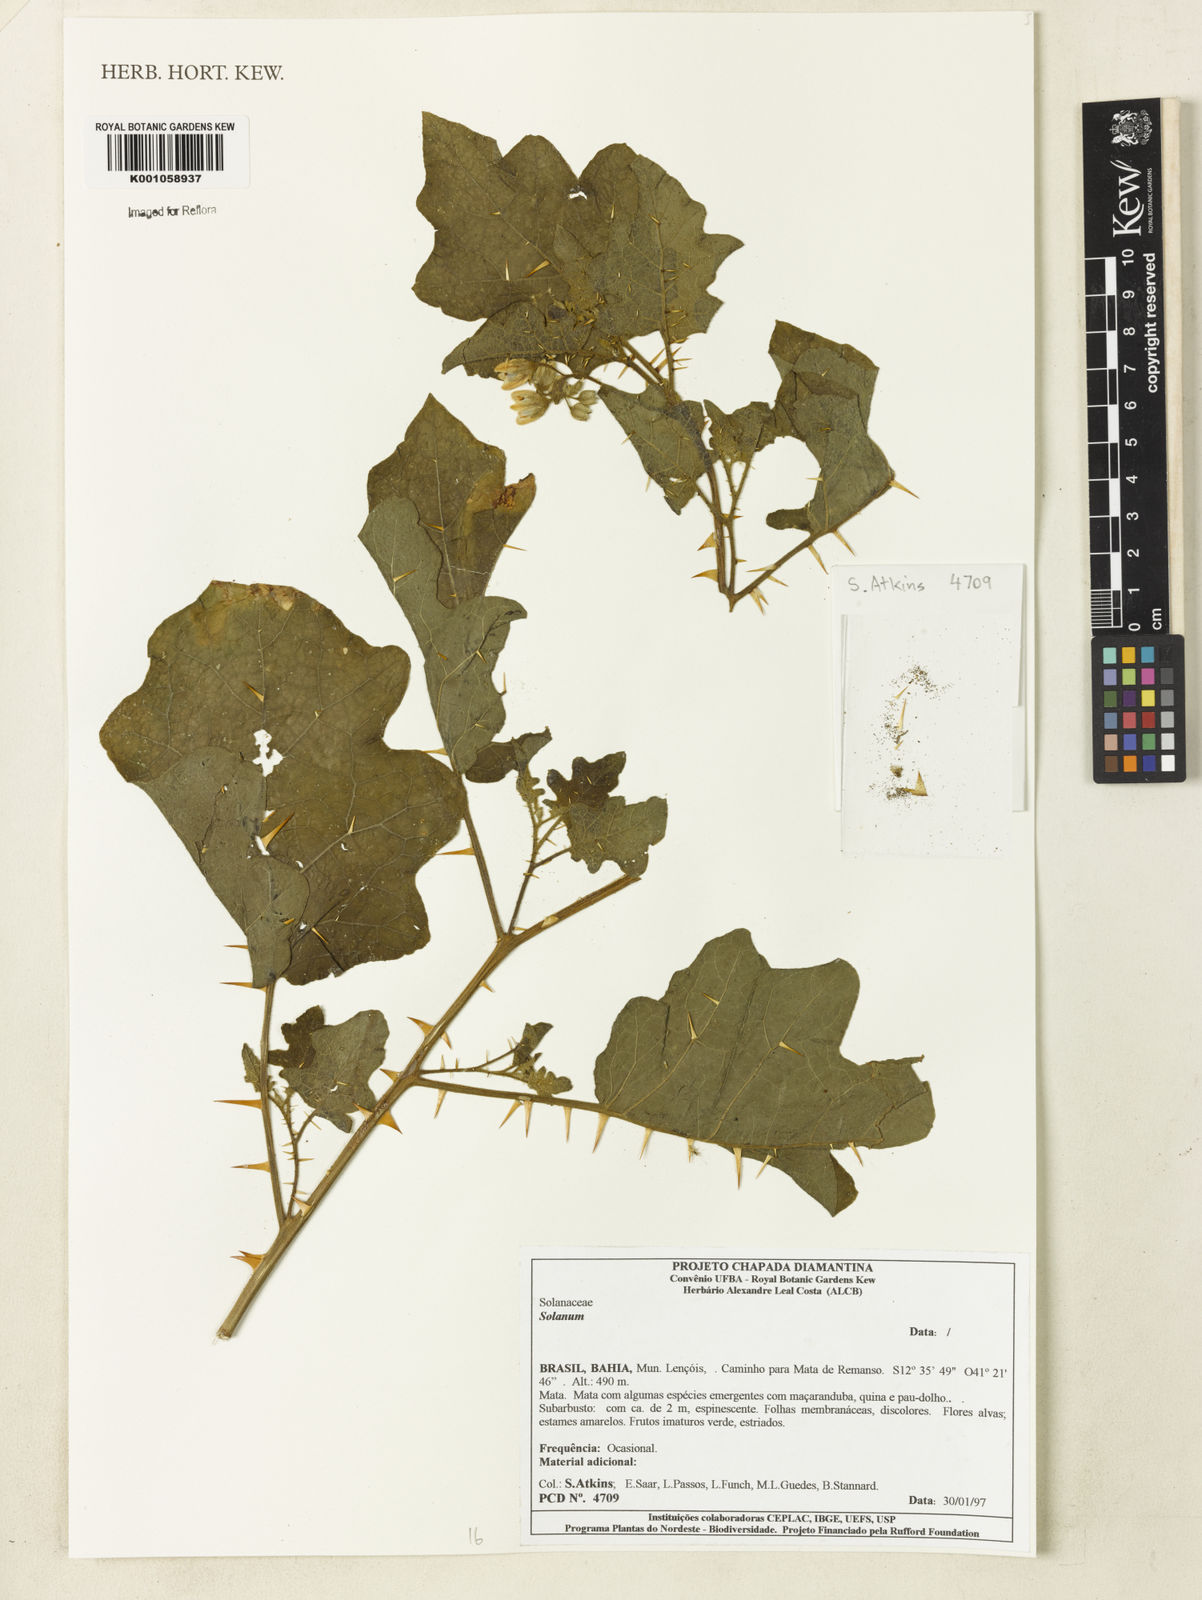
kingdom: Plantae
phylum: Tracheophyta
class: Magnoliopsida
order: Solanales
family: Solanaceae
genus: Solanum
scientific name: Solanum
